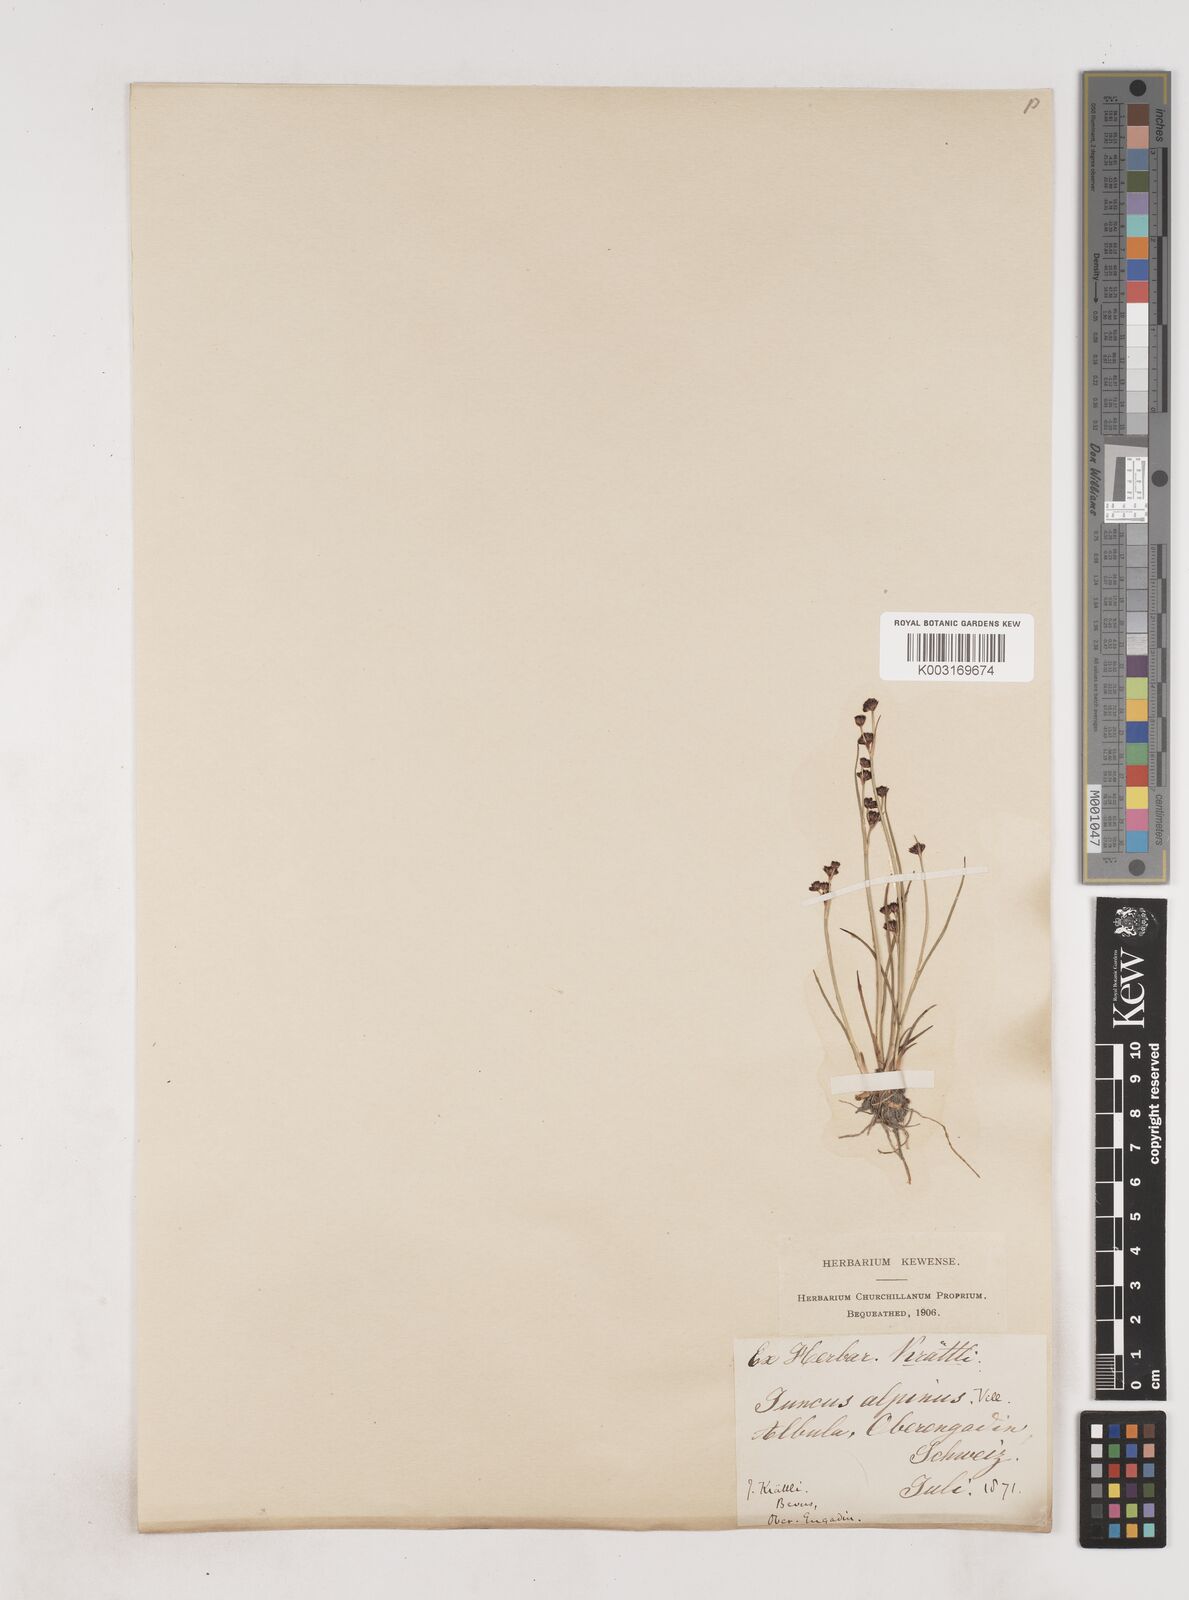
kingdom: Plantae
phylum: Tracheophyta
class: Liliopsida
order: Poales
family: Juncaceae
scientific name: Juncaceae
